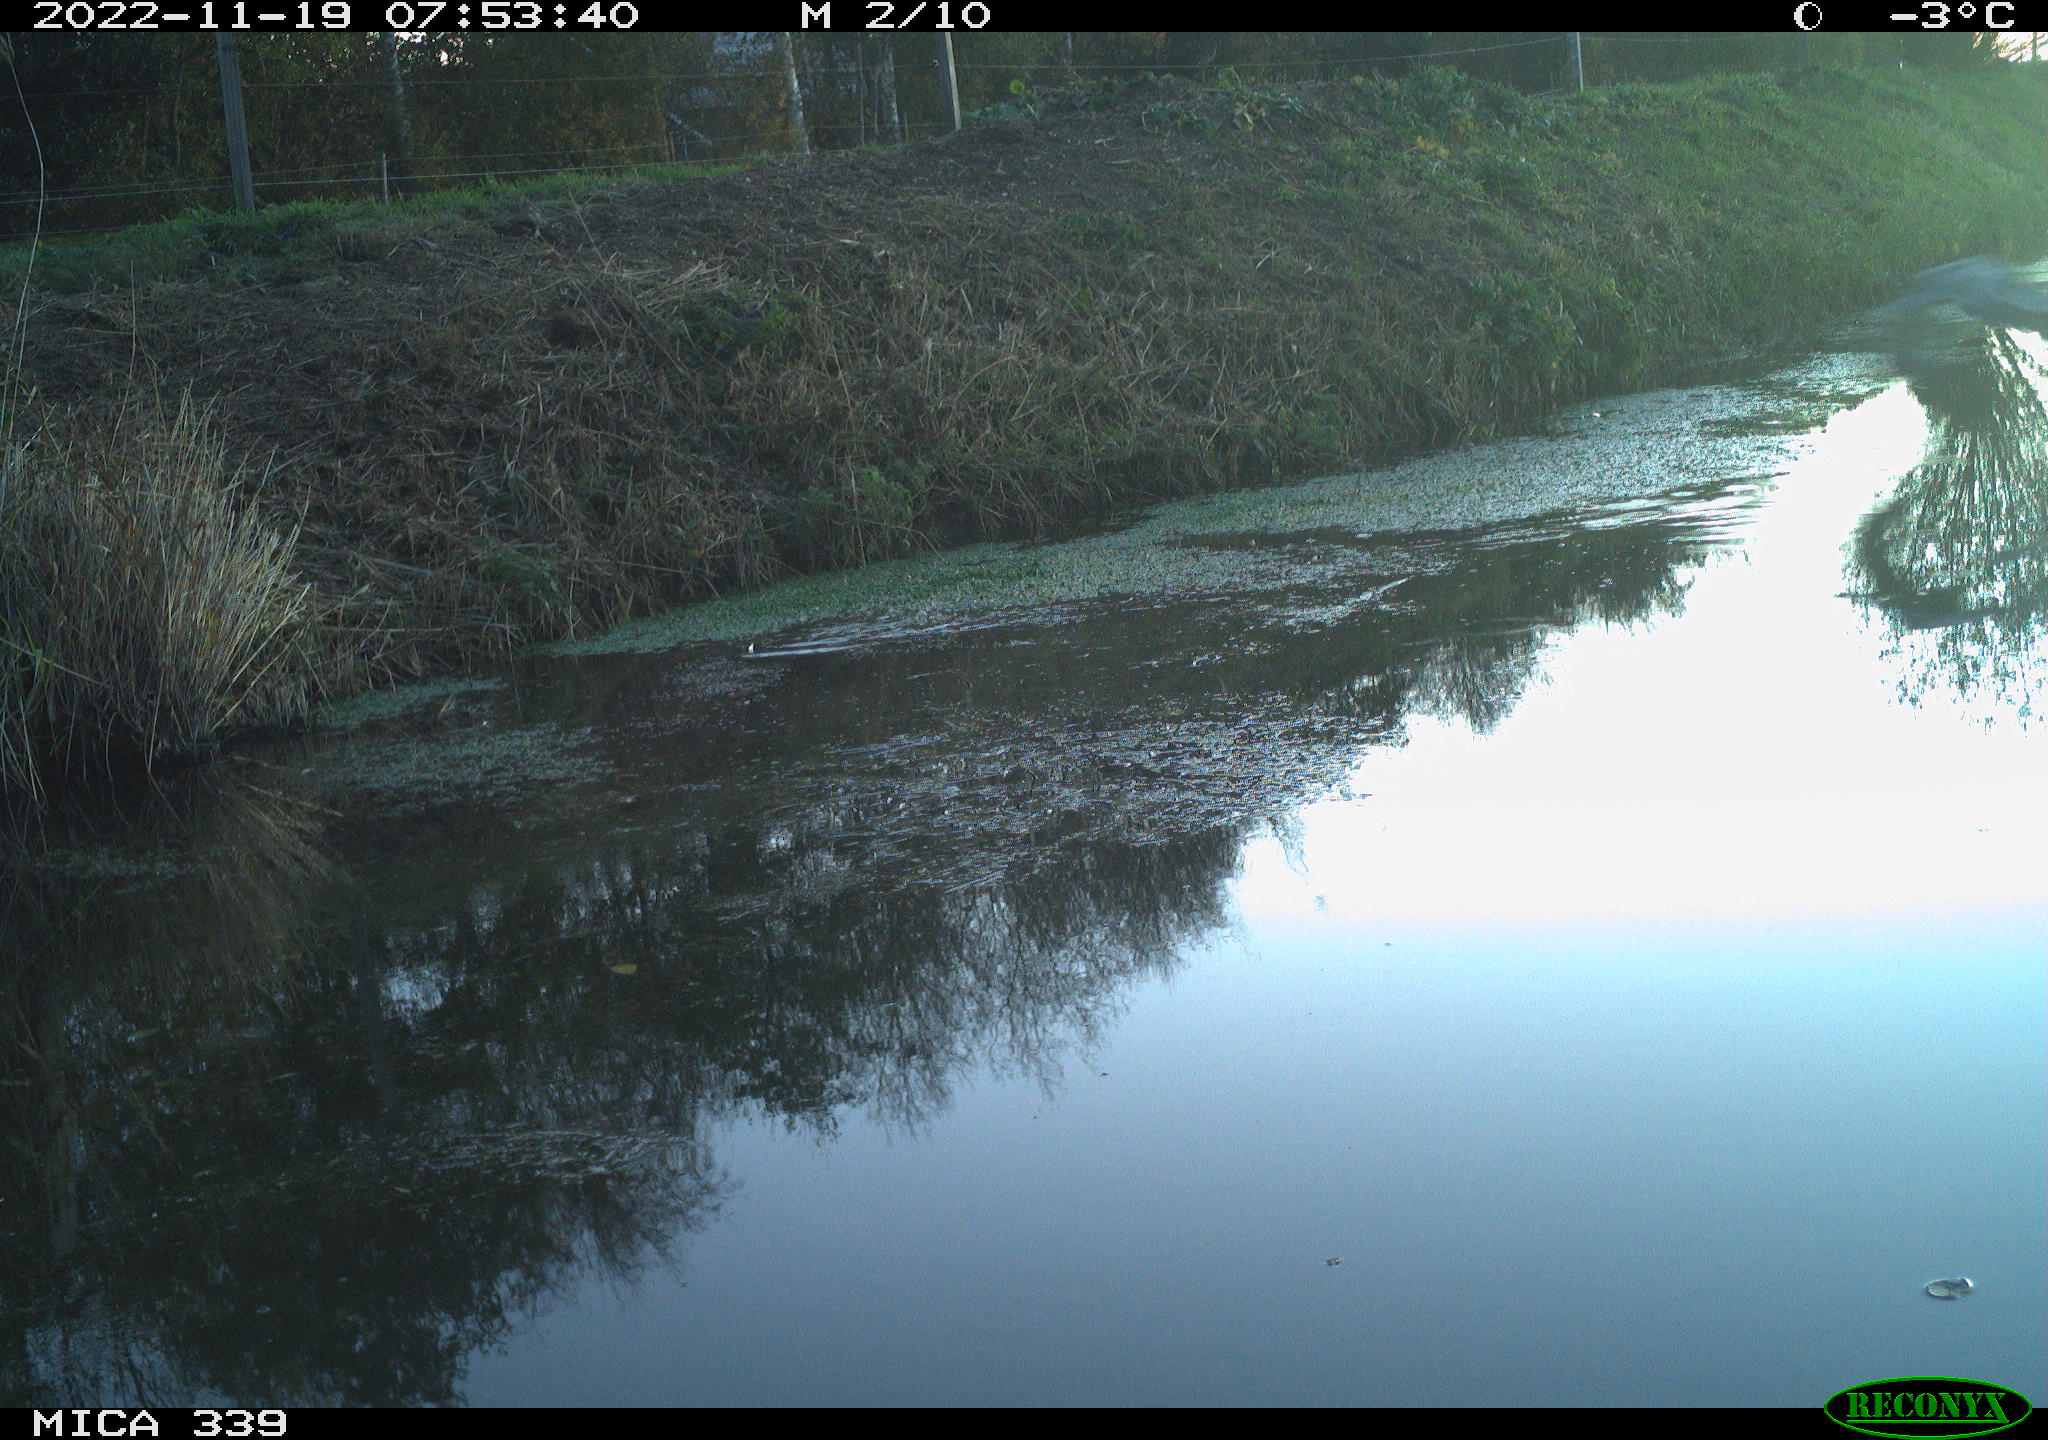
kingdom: Animalia
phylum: Chordata
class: Aves
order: Pelecaniformes
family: Ardeidae
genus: Ardea
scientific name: Ardea cinerea
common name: Grey heron
